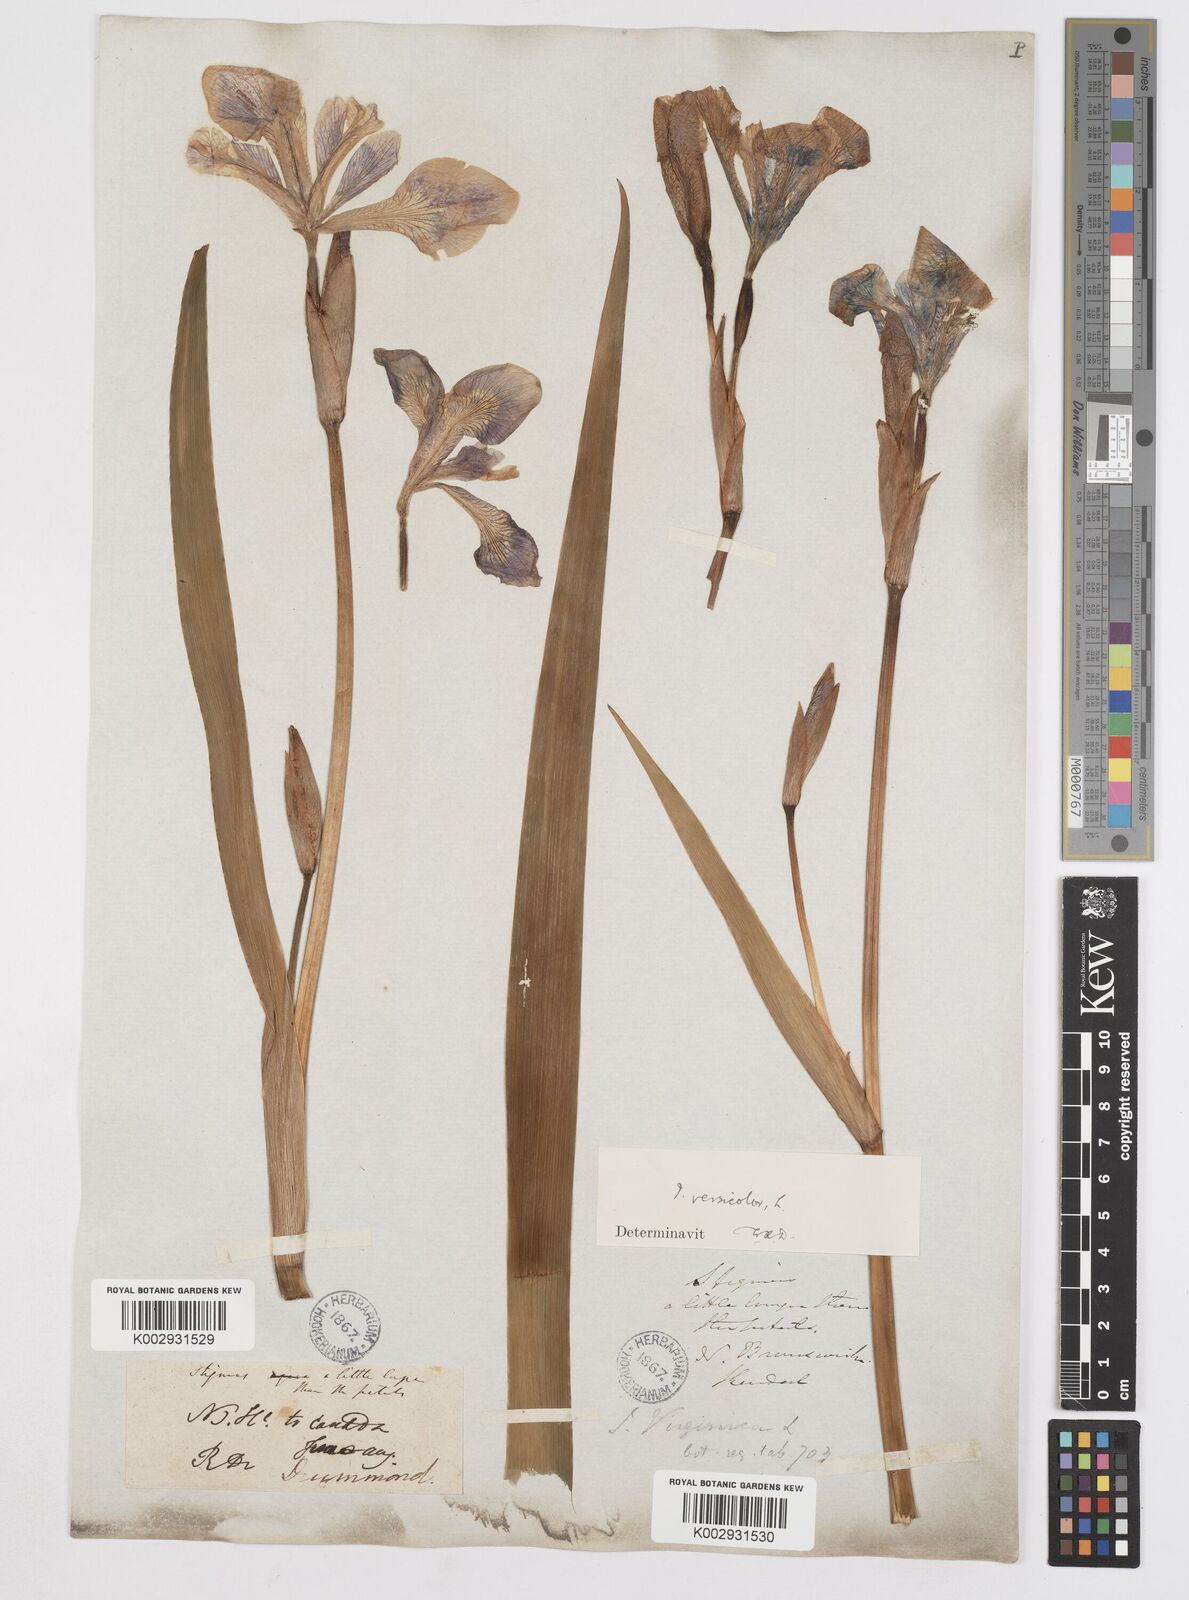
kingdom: Plantae
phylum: Tracheophyta
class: Liliopsida
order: Asparagales
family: Iridaceae
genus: Iris
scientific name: Iris versicolor
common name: Purple iris
